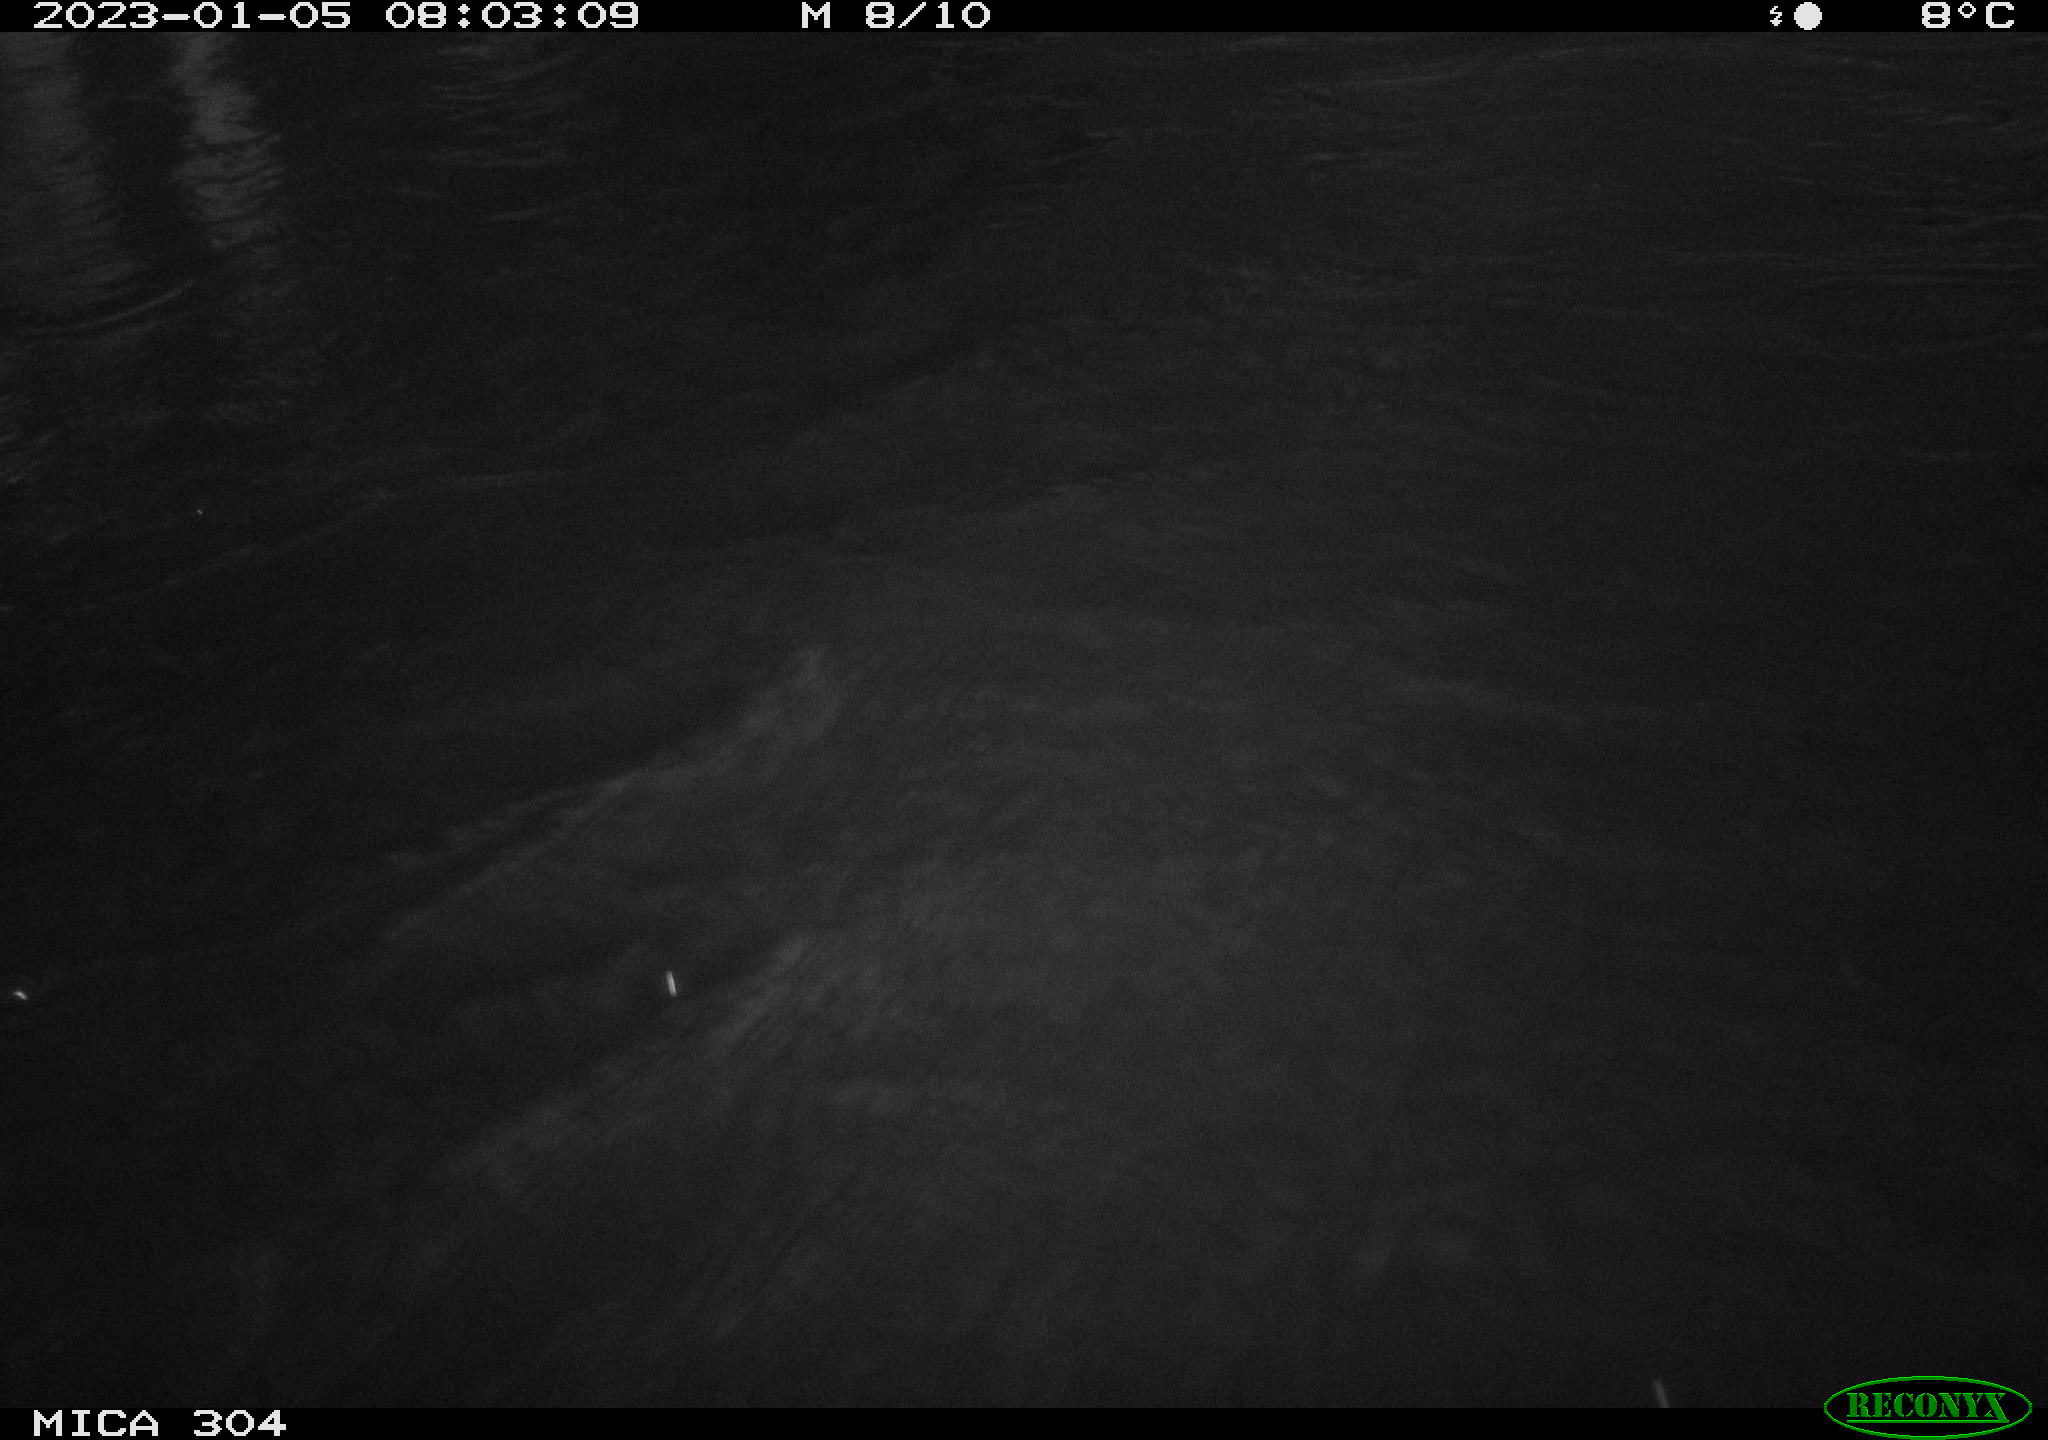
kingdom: Animalia
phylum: Chordata
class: Aves
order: Anseriformes
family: Anatidae
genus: Anas
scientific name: Anas
